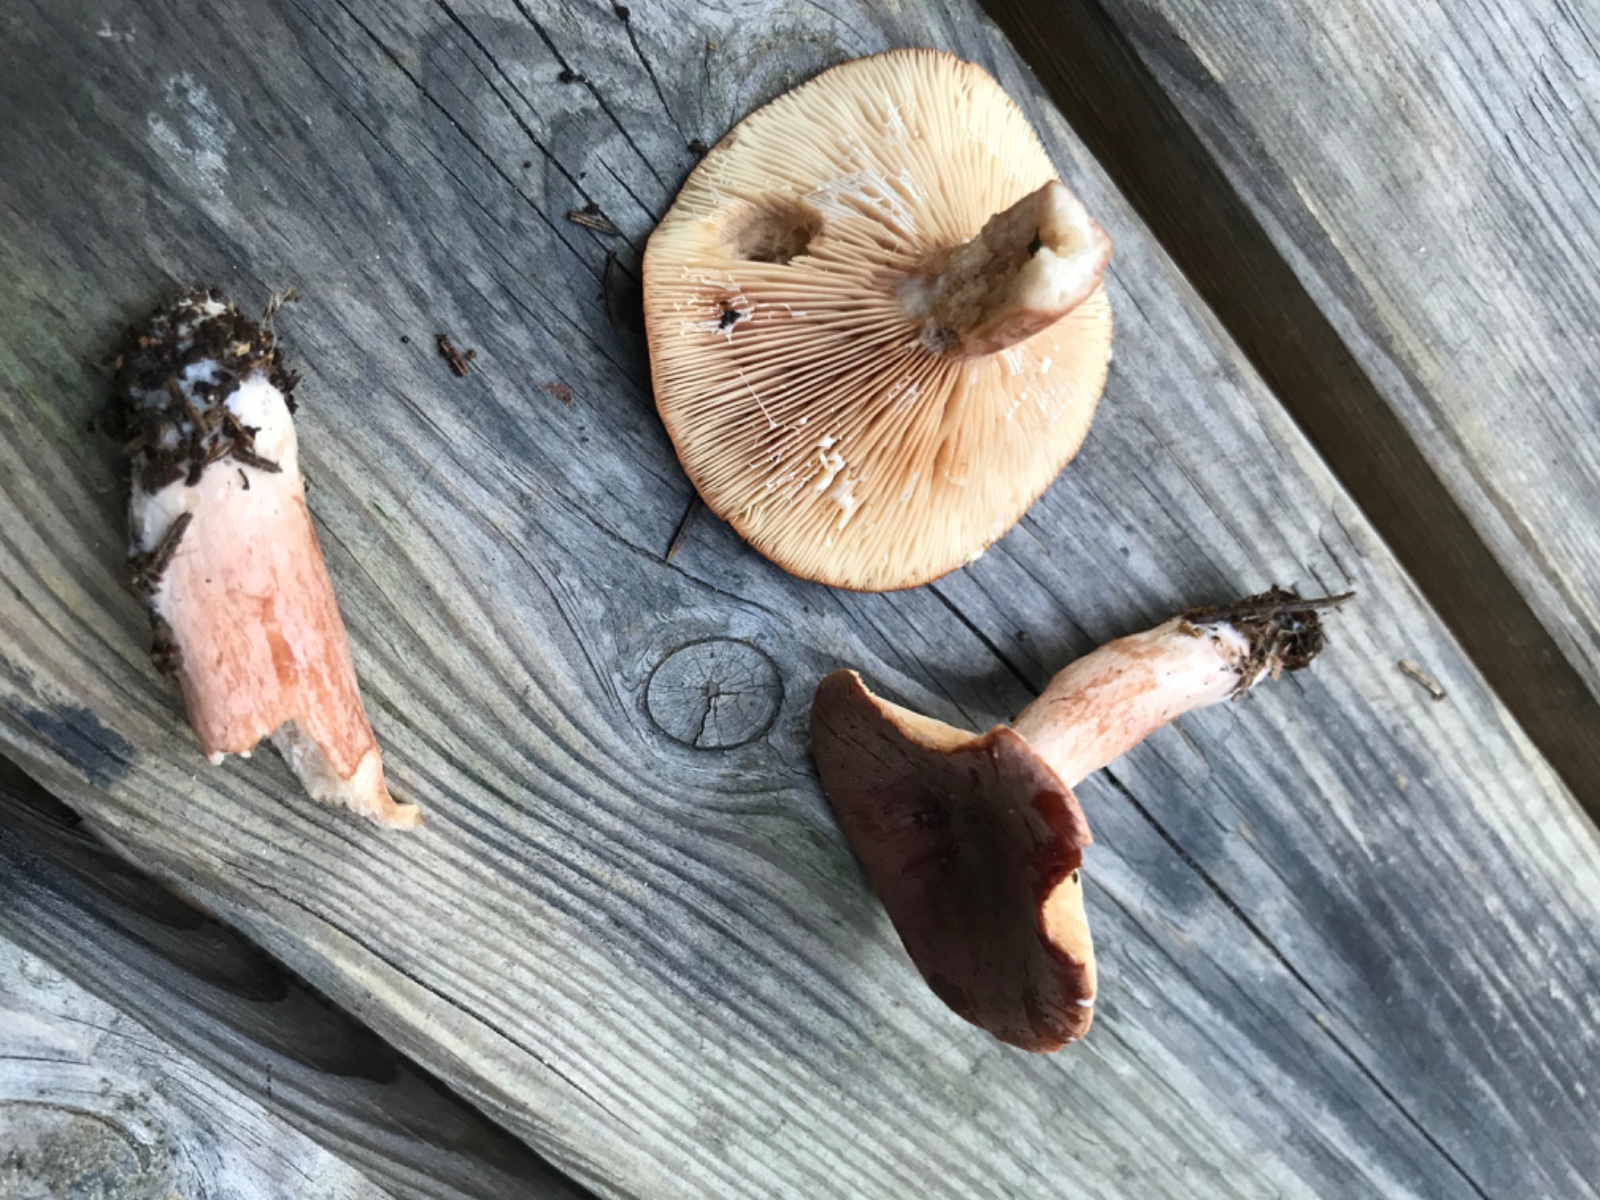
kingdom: Fungi
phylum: Basidiomycota
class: Agaricomycetes
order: Russulales
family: Russulaceae
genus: Lactarius
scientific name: Lactarius rufus
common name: rødbrun mælkehat
